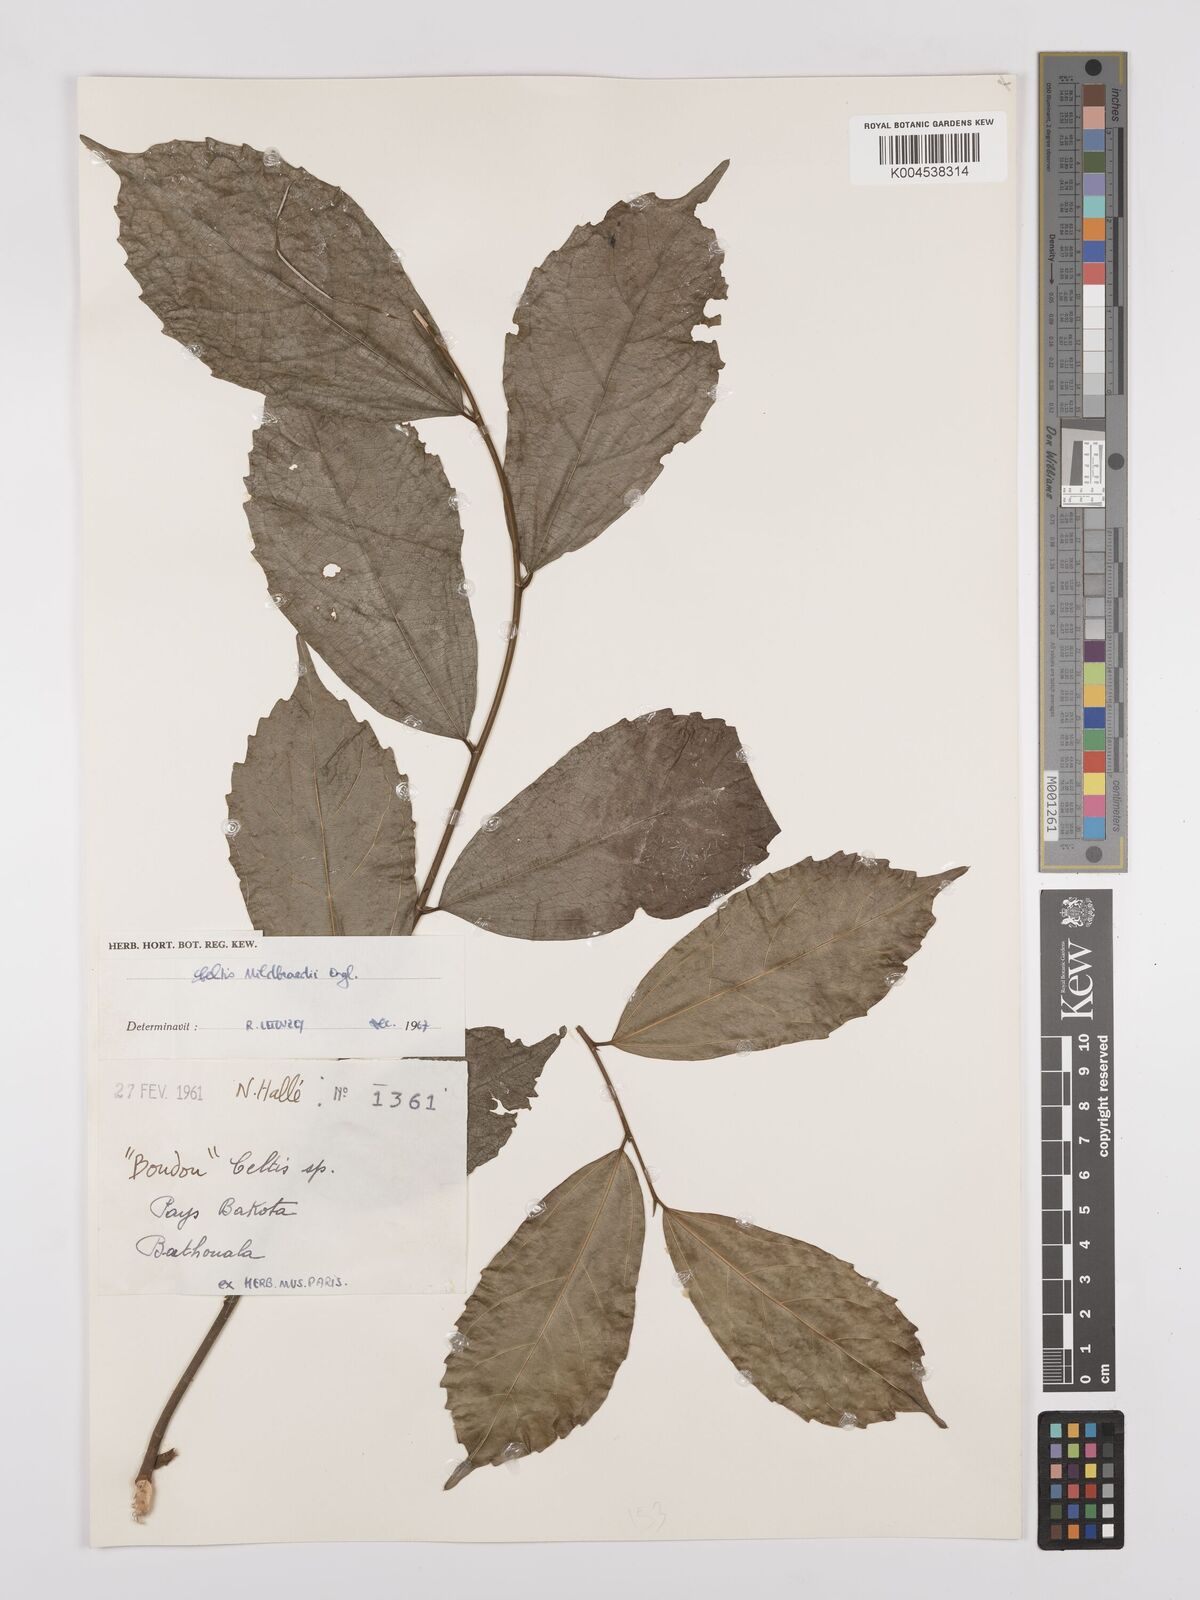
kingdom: Plantae
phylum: Tracheophyta
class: Magnoliopsida
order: Rosales
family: Cannabaceae
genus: Celtis
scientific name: Celtis mildbraedii
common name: Red-fruited stinkwood
